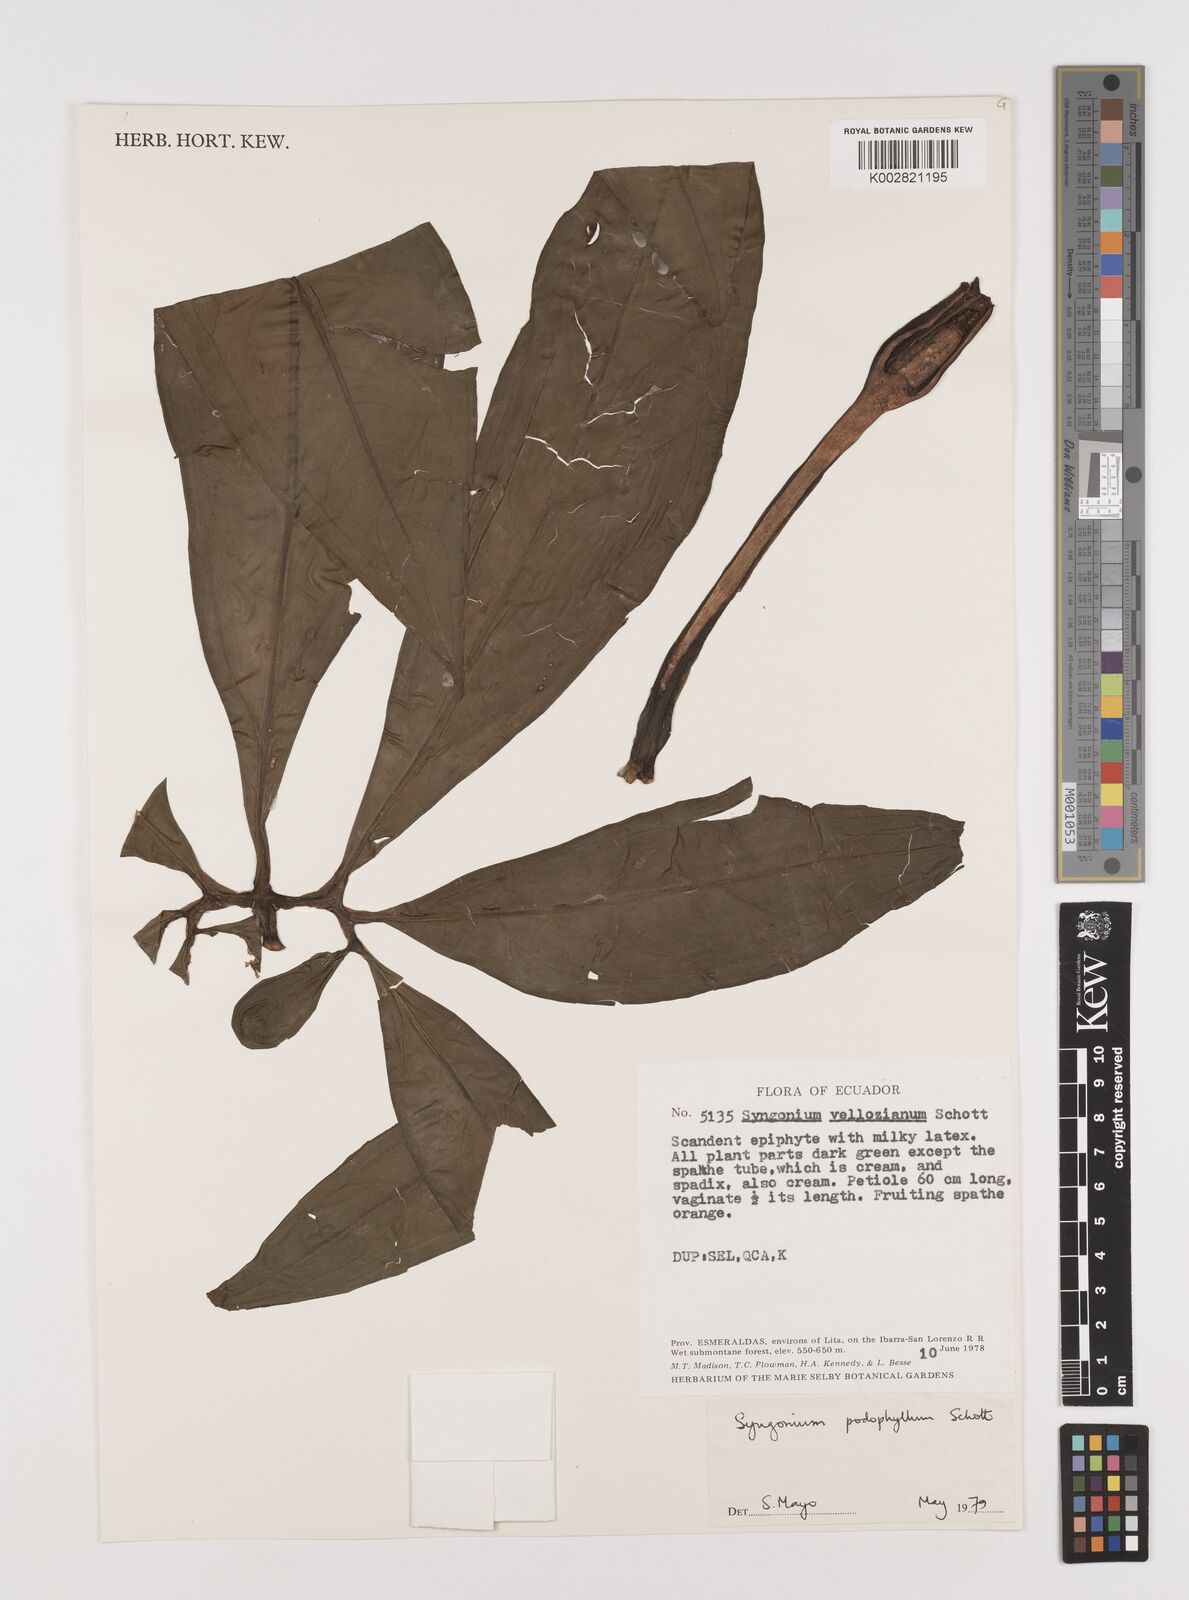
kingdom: Plantae
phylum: Tracheophyta
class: Liliopsida
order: Alismatales
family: Araceae
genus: Syngonium
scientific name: Syngonium podophyllum
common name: American evergreen
